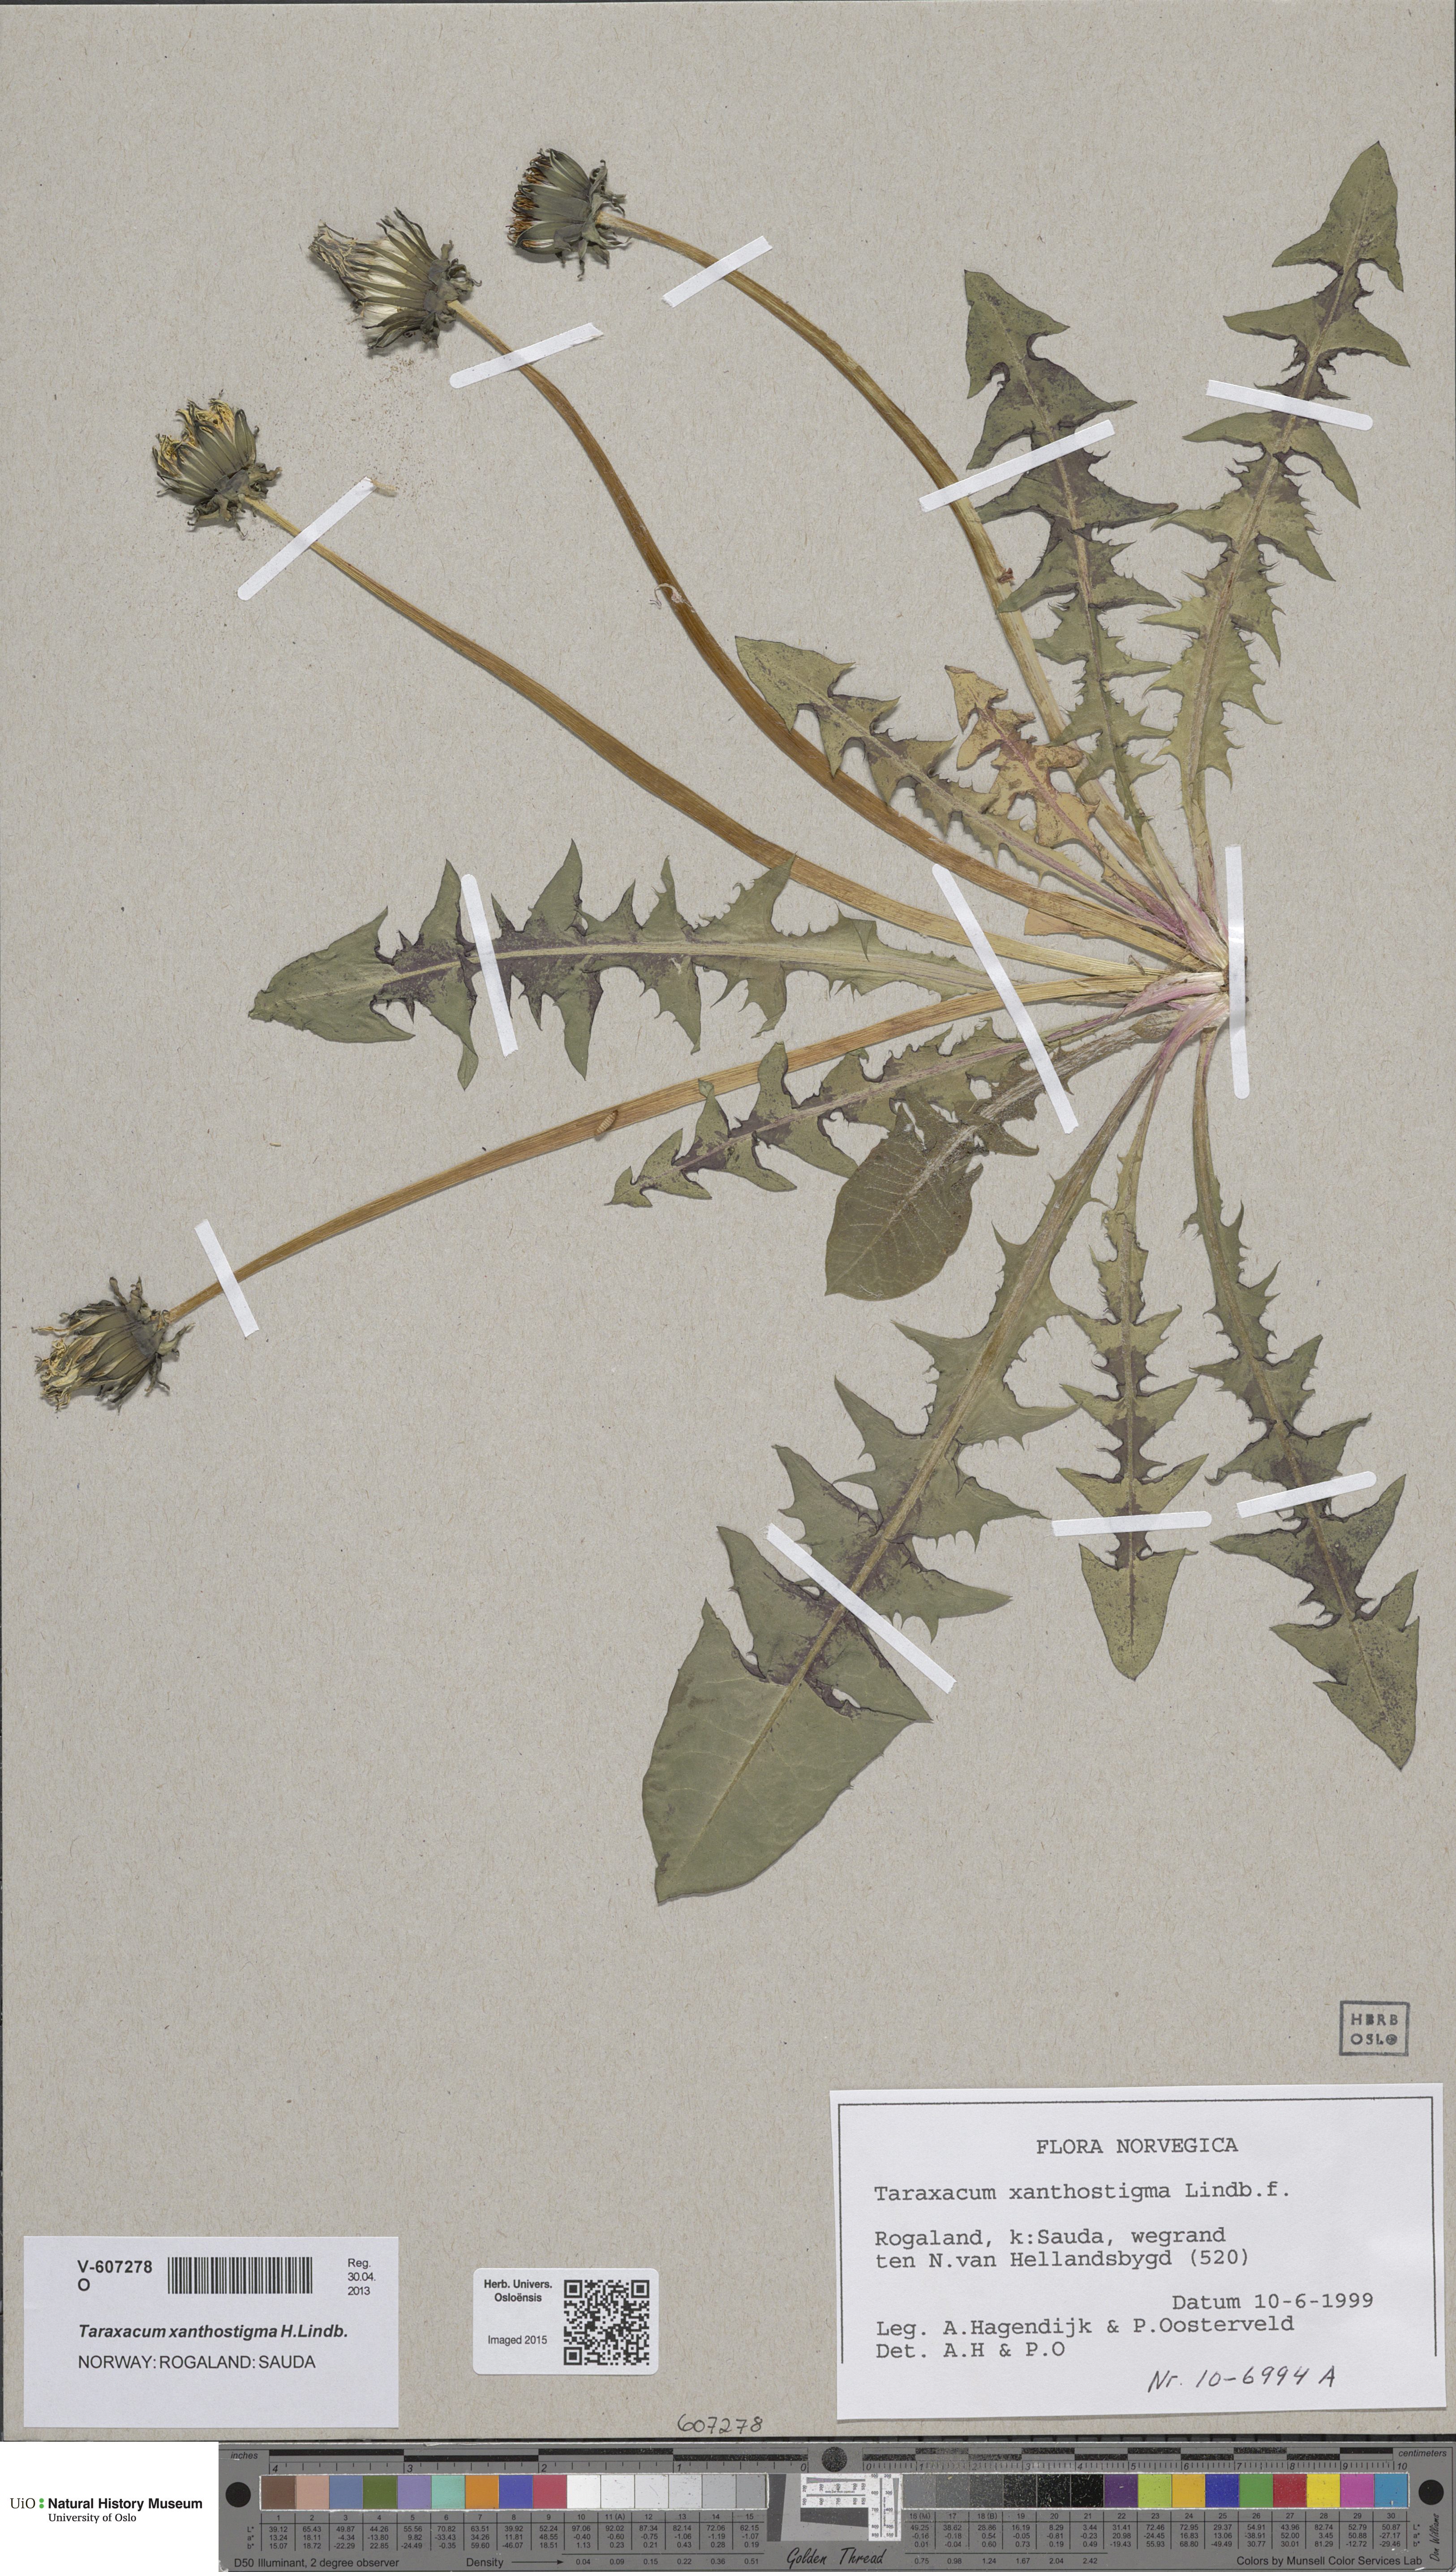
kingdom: Plantae
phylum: Tracheophyta
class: Magnoliopsida
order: Asterales
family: Asteraceae
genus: Taraxacum
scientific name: Taraxacum xanthostigma
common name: Ochre-styled dandelion
